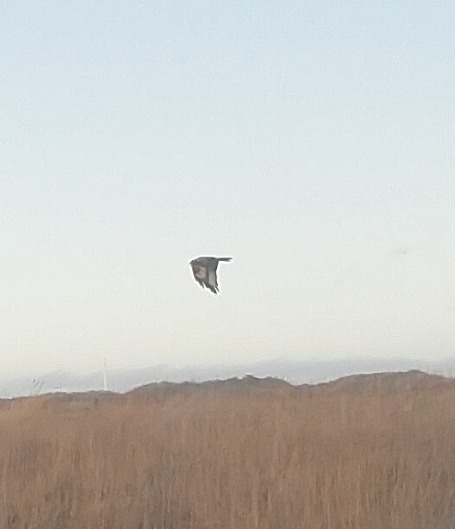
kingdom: Animalia
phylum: Chordata
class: Aves
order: Accipitriformes
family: Accipitridae
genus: Buteo
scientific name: Buteo lagopus
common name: Fjeldvåge
